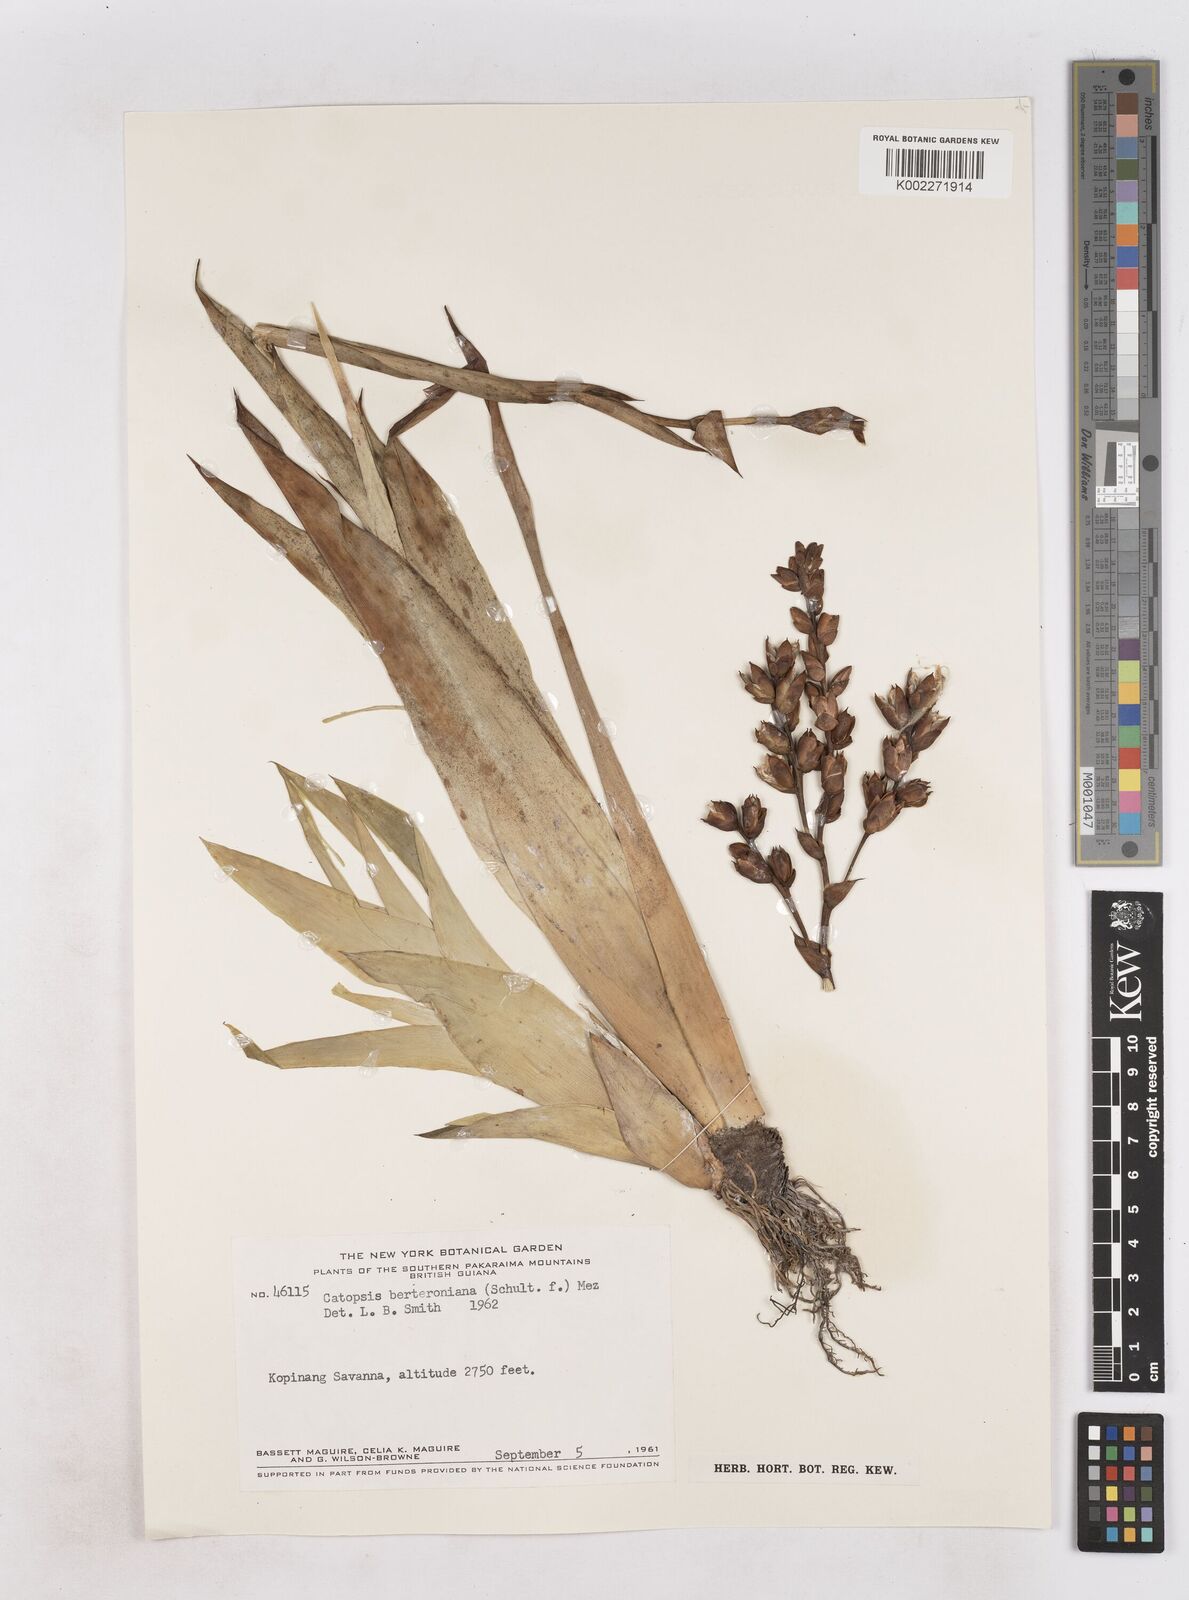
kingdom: Plantae
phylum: Tracheophyta
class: Liliopsida
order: Poales
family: Bromeliaceae
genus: Catopsis
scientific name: Catopsis berteroniana
